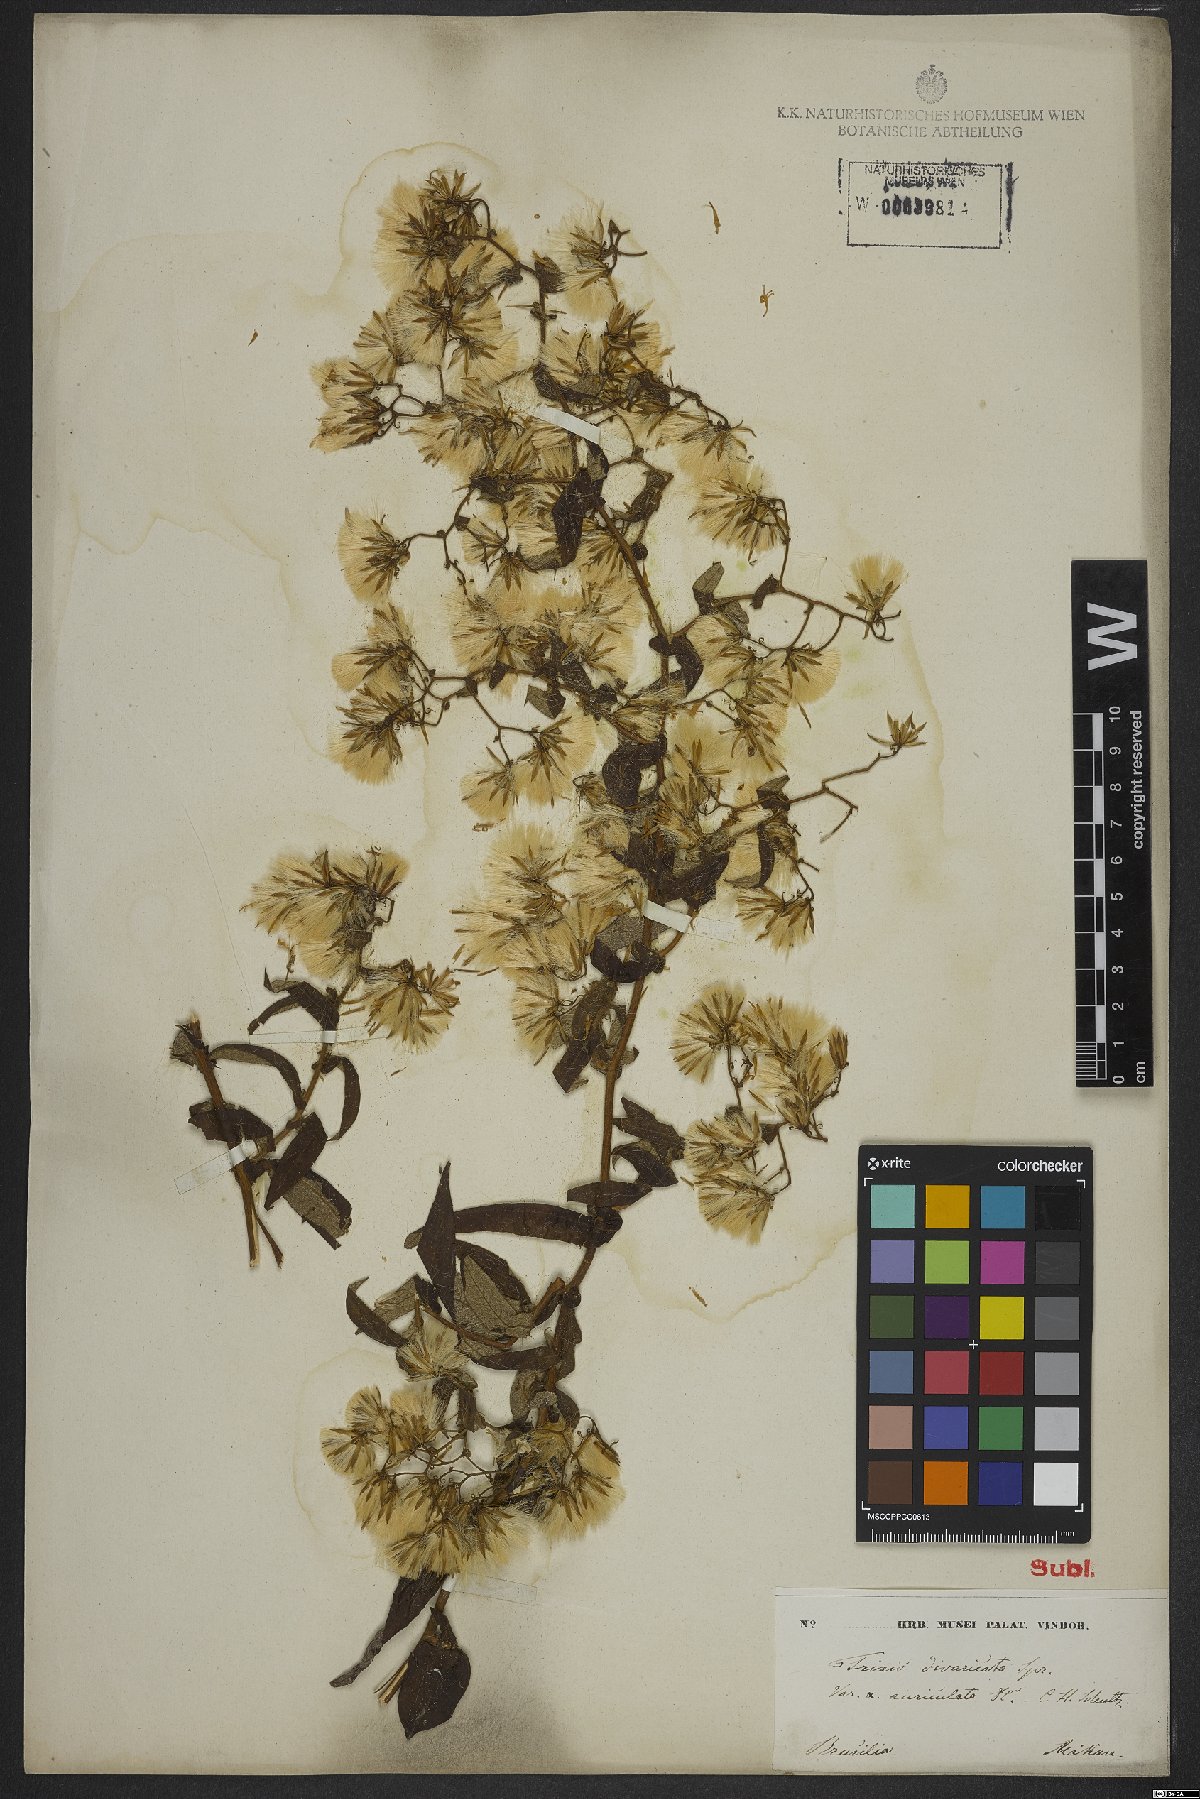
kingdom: Plantae
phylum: Tracheophyta
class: Magnoliopsida
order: Asterales
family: Asteraceae
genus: Trixis
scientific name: Trixis divaricata
